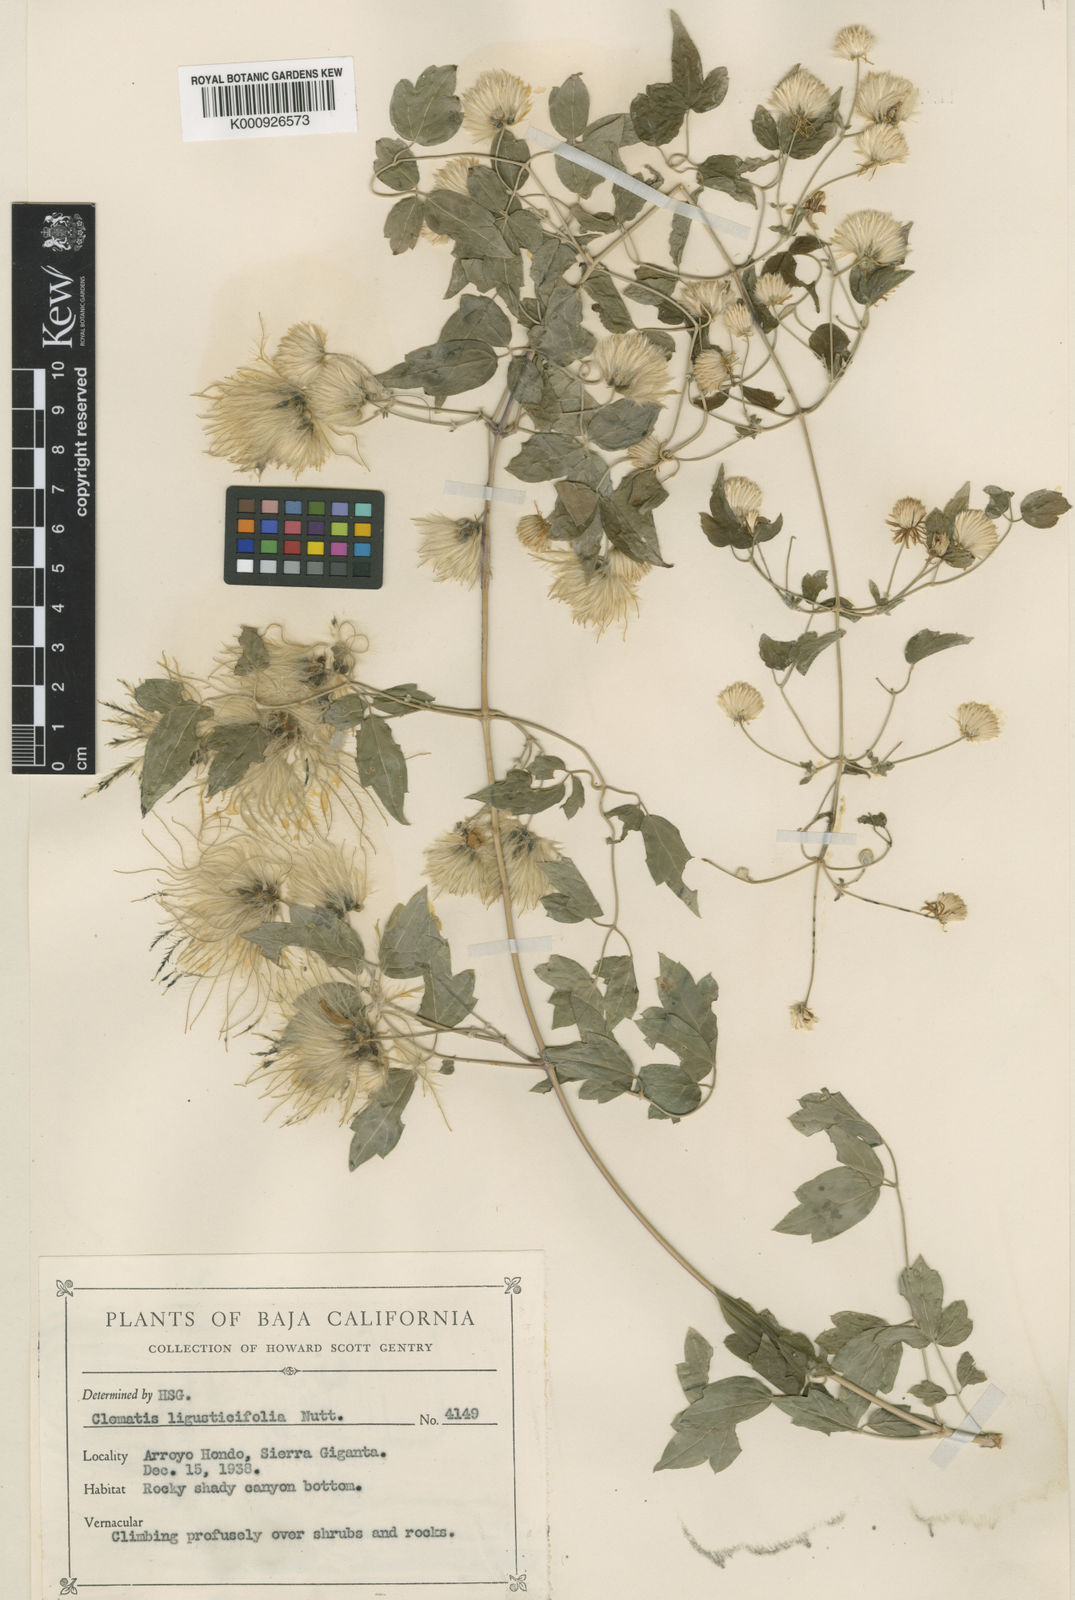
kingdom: Plantae
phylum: Tracheophyta
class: Magnoliopsida
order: Ranunculales
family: Ranunculaceae
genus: Clematis
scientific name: Clematis ligusticifolia
